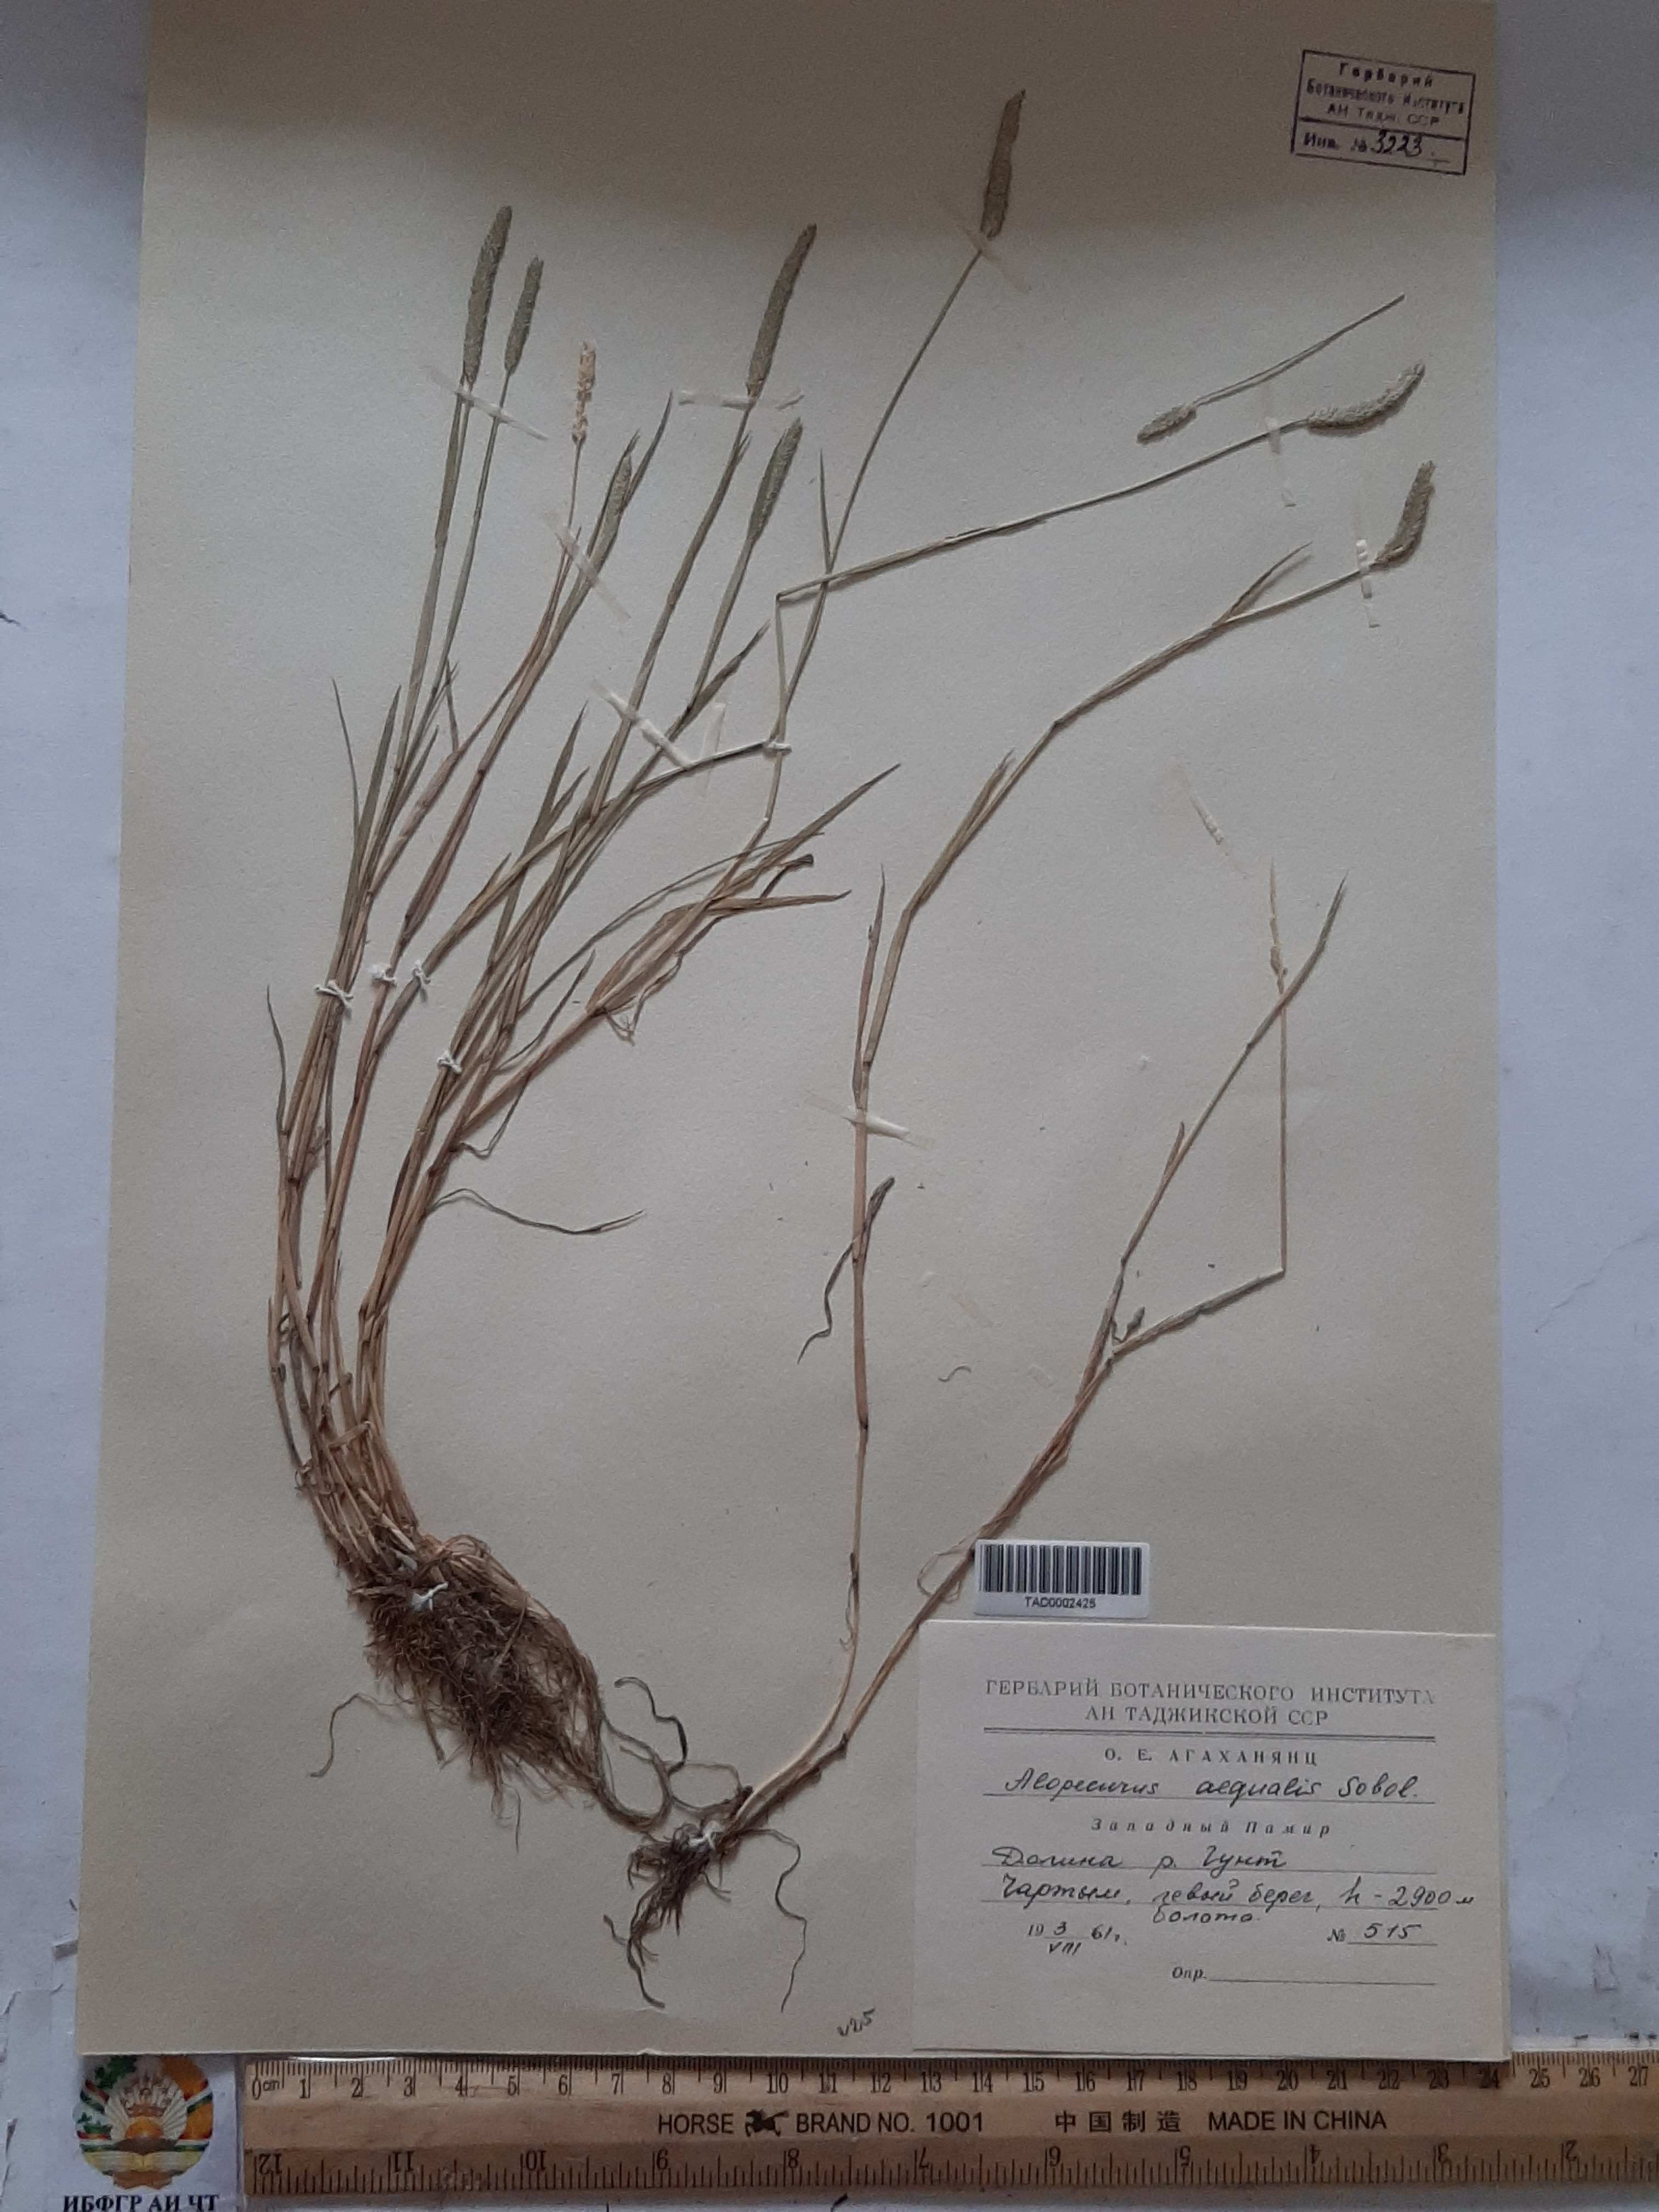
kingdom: Plantae
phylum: Tracheophyta
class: Liliopsida
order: Poales
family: Poaceae
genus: Alopecurus
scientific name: Alopecurus aequalis
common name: Orange foxtail
